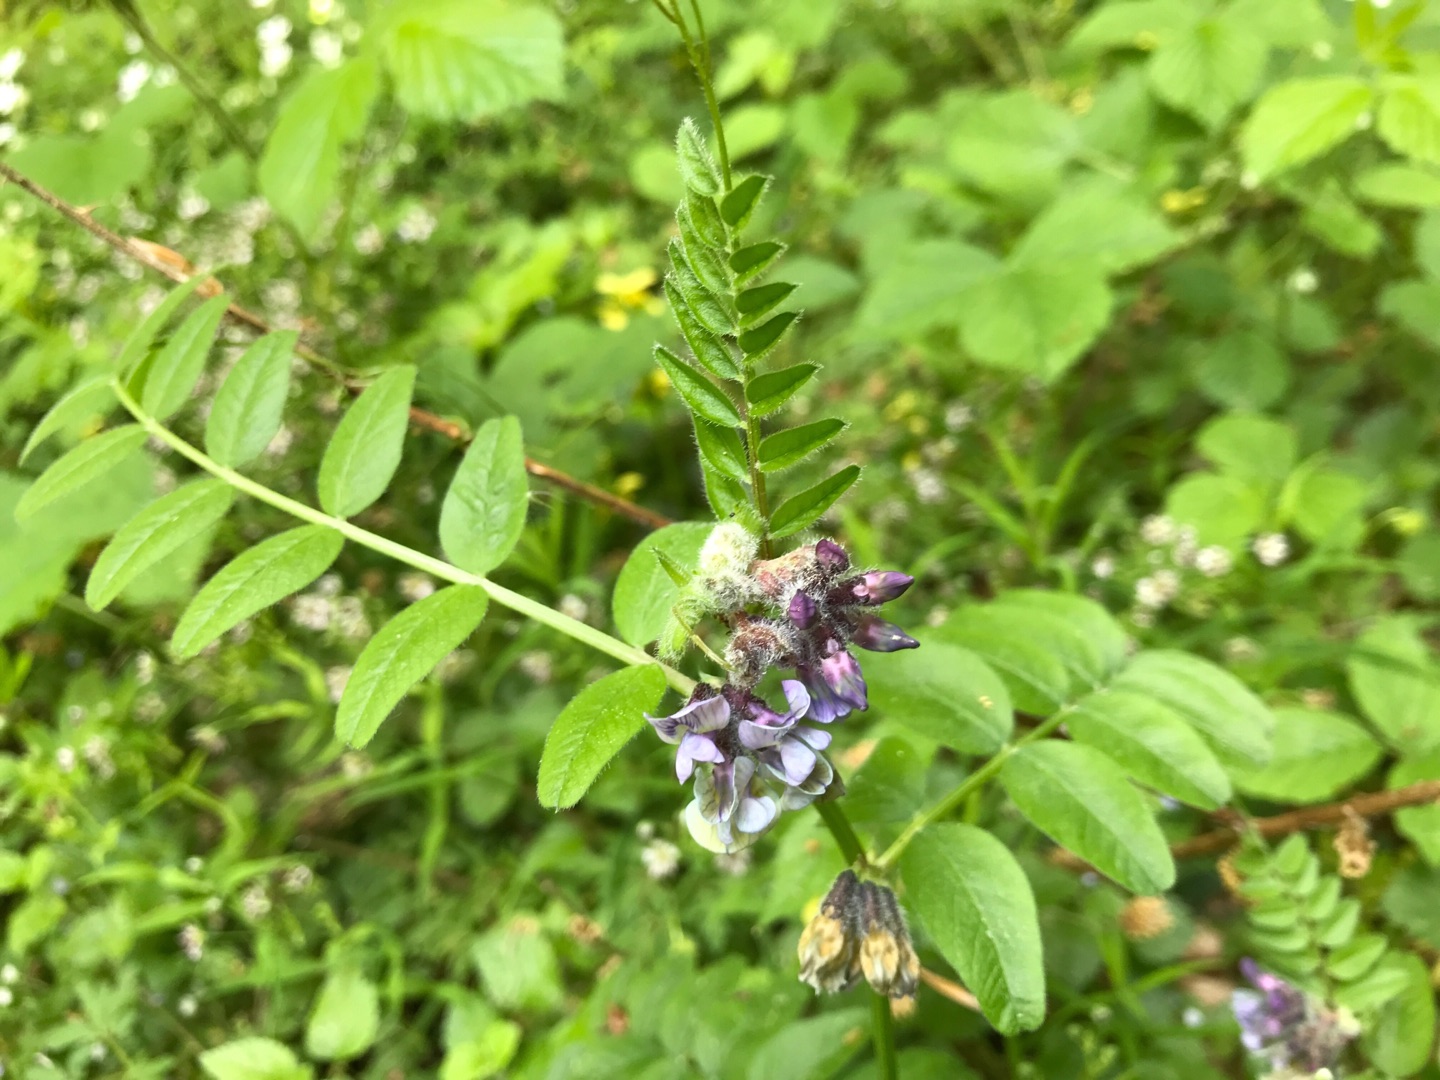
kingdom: Plantae
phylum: Tracheophyta
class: Magnoliopsida
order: Fabales
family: Fabaceae
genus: Vicia
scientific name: Vicia sepium
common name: Gærde-vikke
